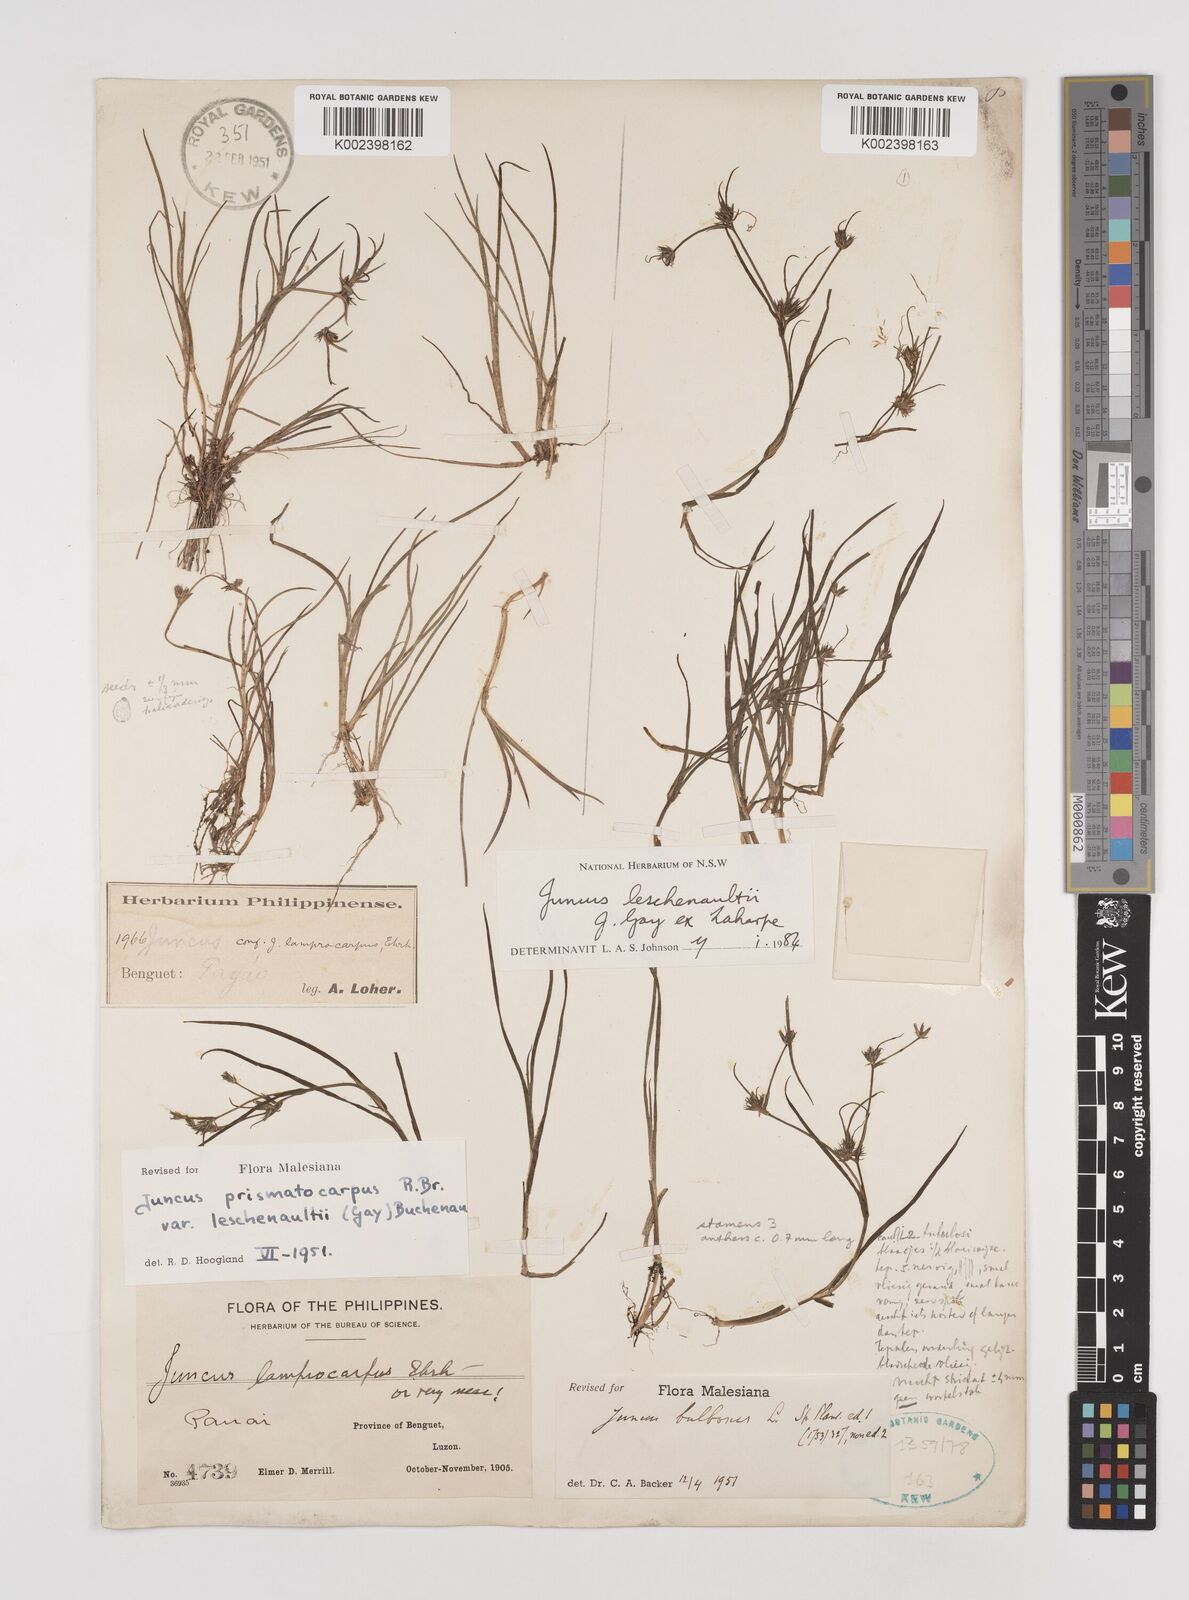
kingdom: Plantae
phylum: Tracheophyta
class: Liliopsida
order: Poales
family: Juncaceae
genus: Juncus
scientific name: Juncus prismatocarpus
